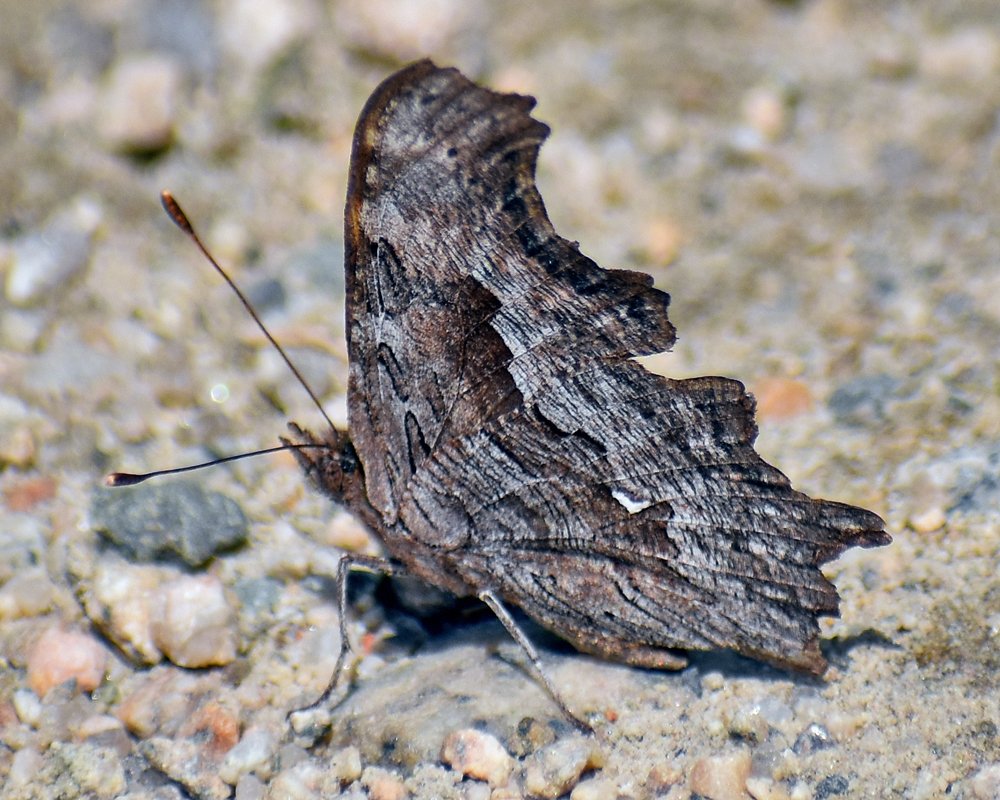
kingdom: Animalia
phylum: Arthropoda
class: Insecta
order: Lepidoptera
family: Nymphalidae
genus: Polygonia
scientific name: Polygonia gracilis
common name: Hoary Comma
